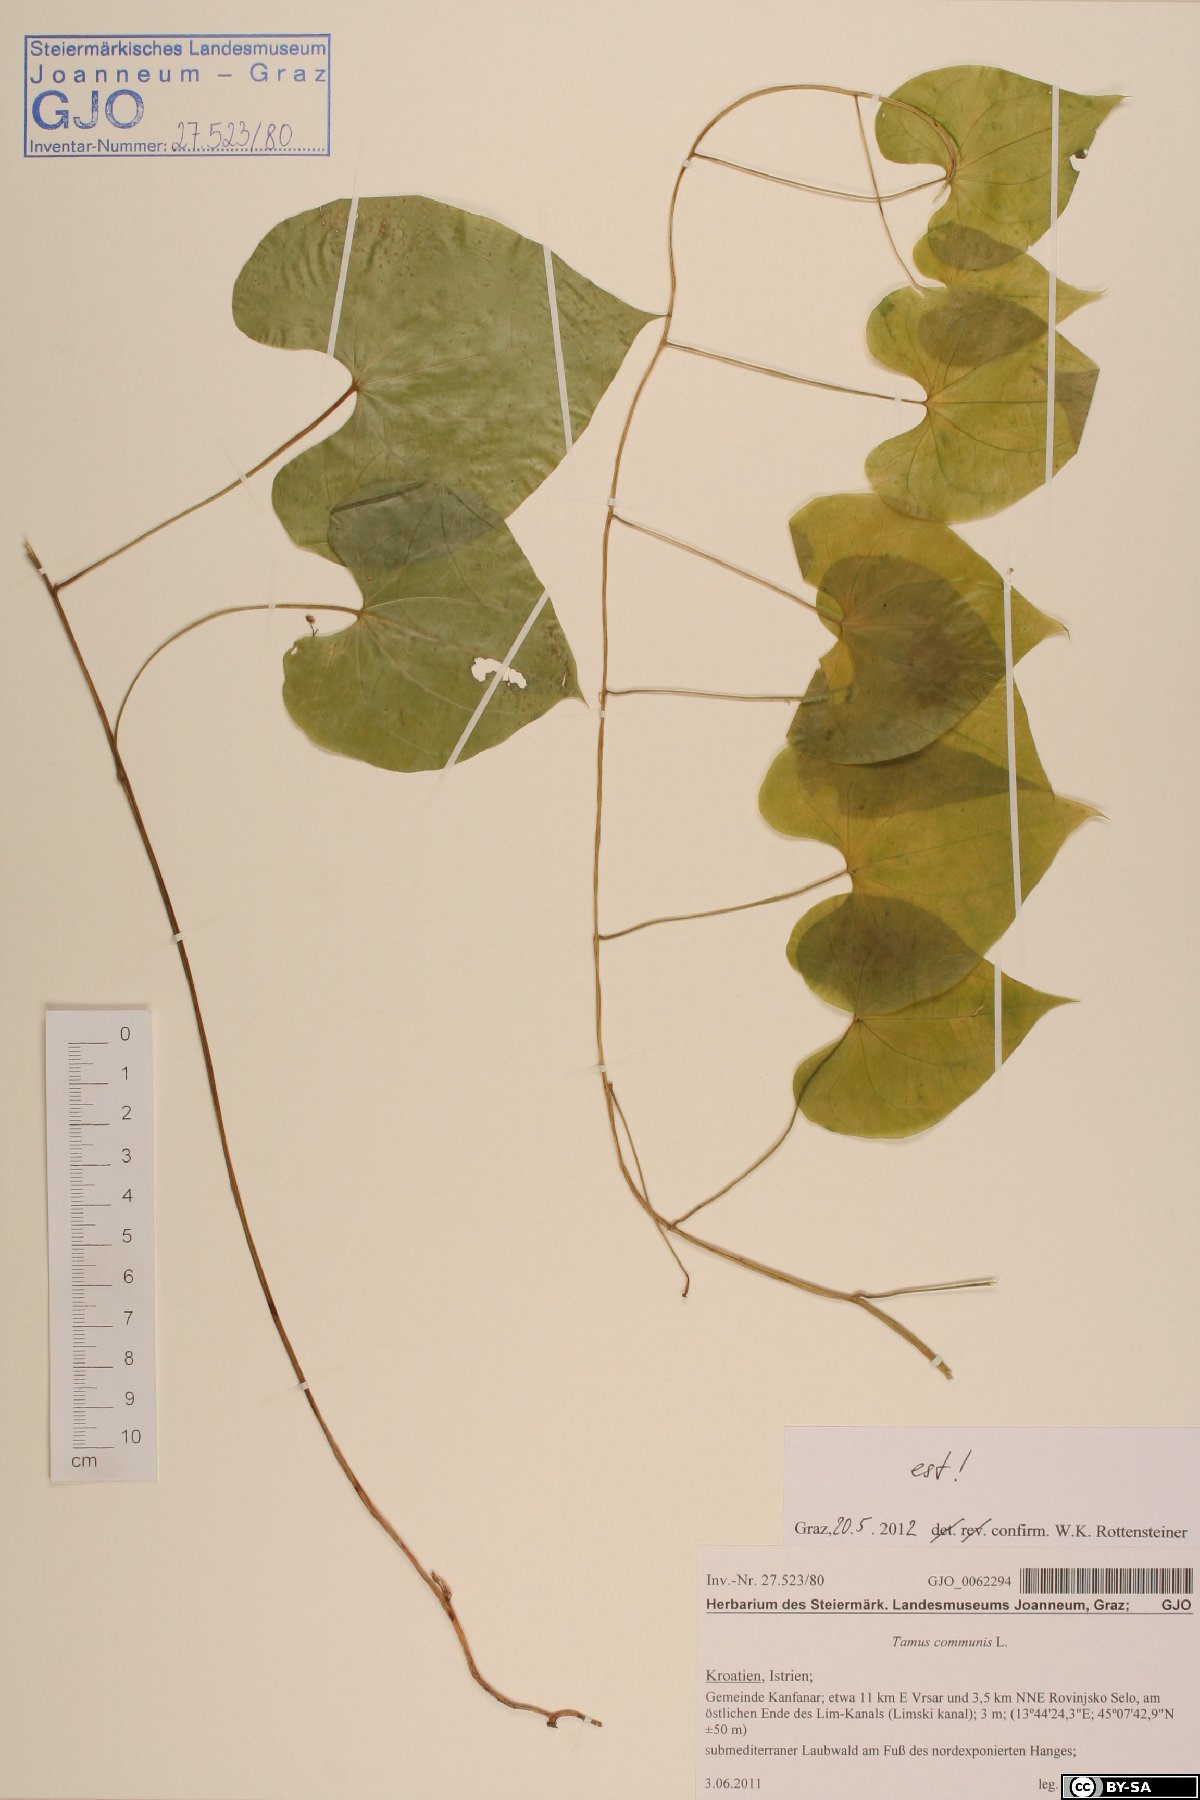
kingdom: Plantae
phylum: Tracheophyta
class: Liliopsida
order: Dioscoreales
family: Dioscoreaceae
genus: Dioscorea
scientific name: Dioscorea communis
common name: Black-bindweed
